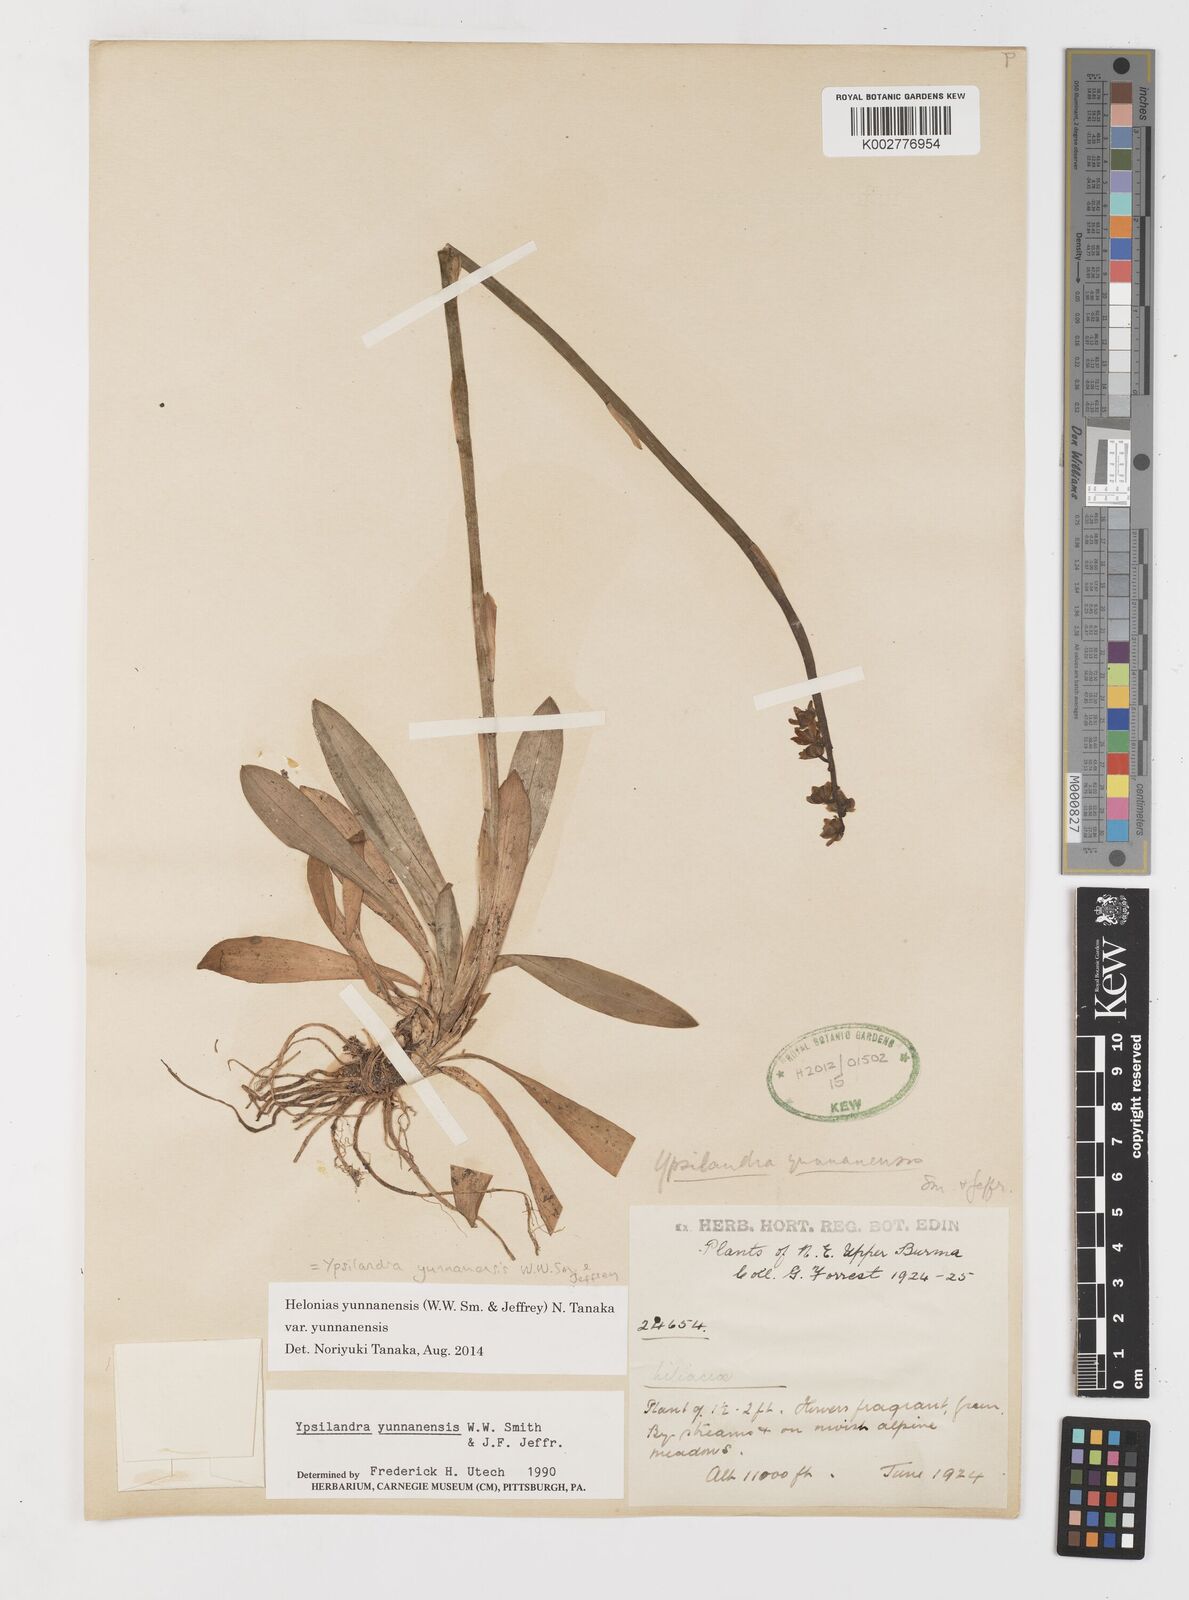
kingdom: Plantae
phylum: Tracheophyta
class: Liliopsida
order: Liliales
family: Melanthiaceae
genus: Helonias
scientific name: Helonias yunnanensis
